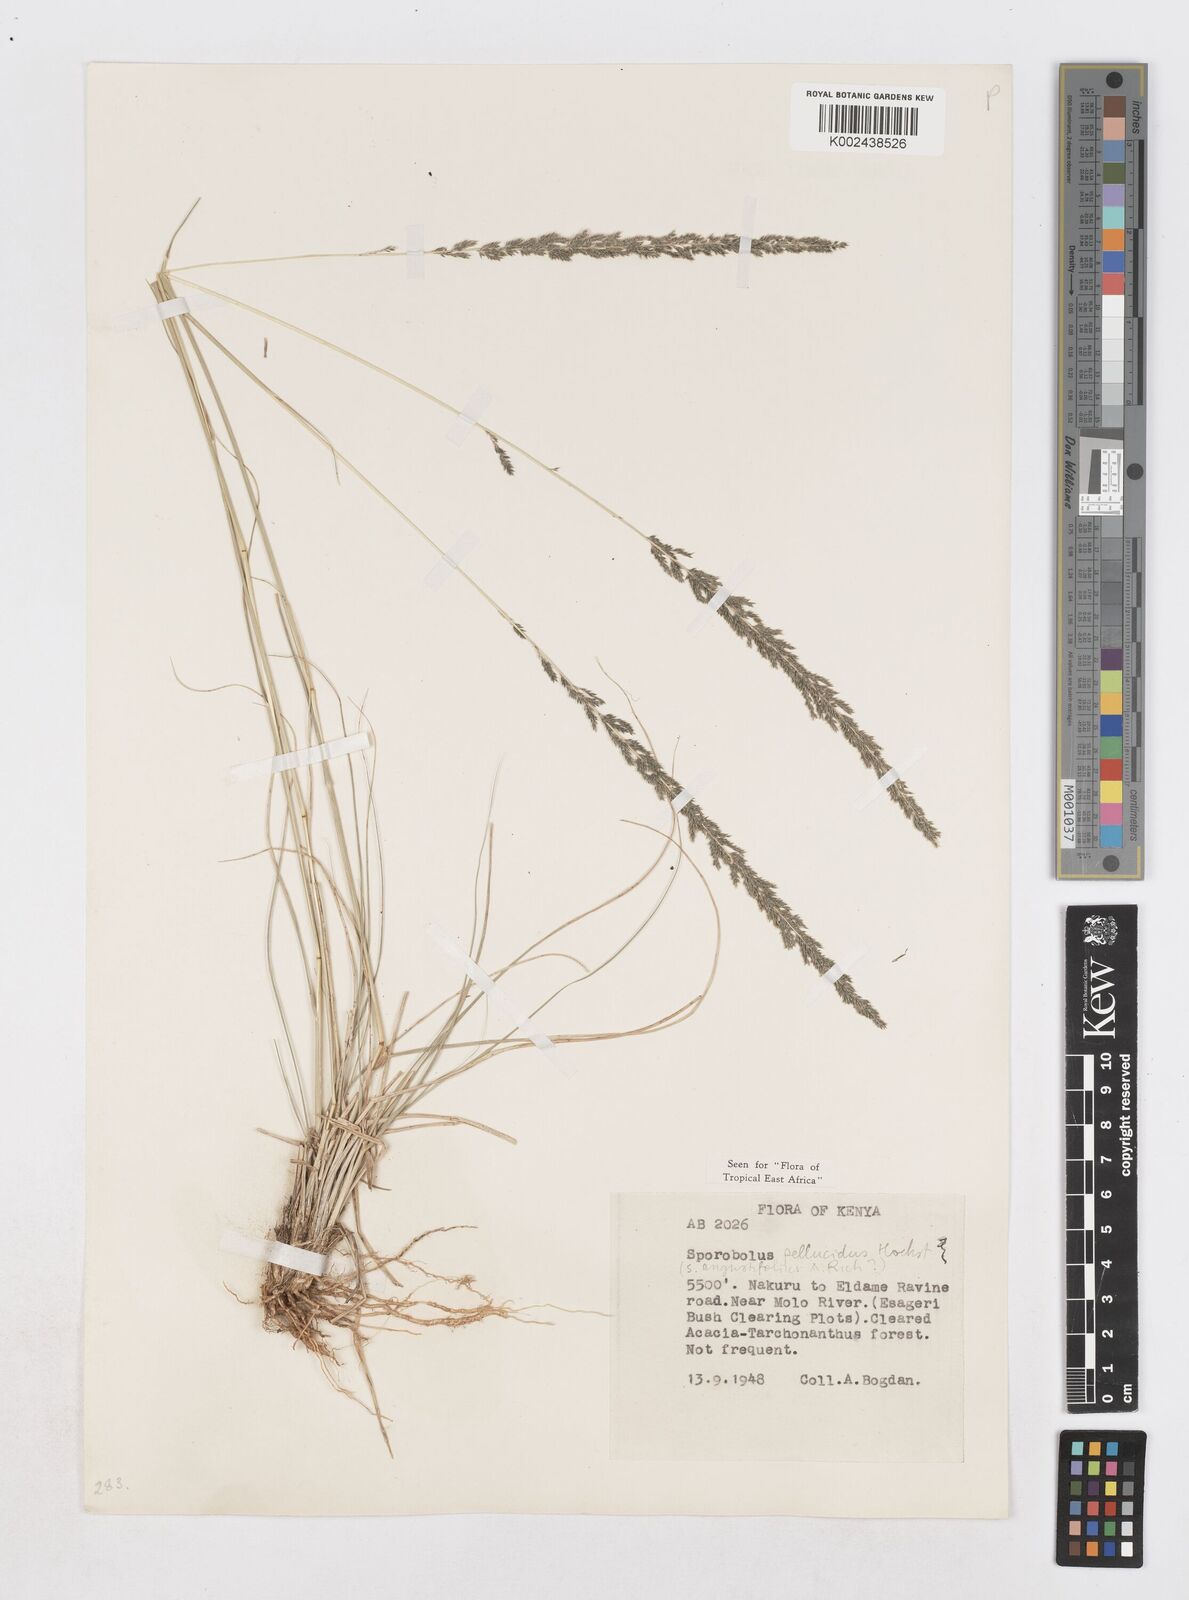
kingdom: Plantae
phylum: Tracheophyta
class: Liliopsida
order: Poales
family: Poaceae
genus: Sporobolus
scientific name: Sporobolus pellucidus
